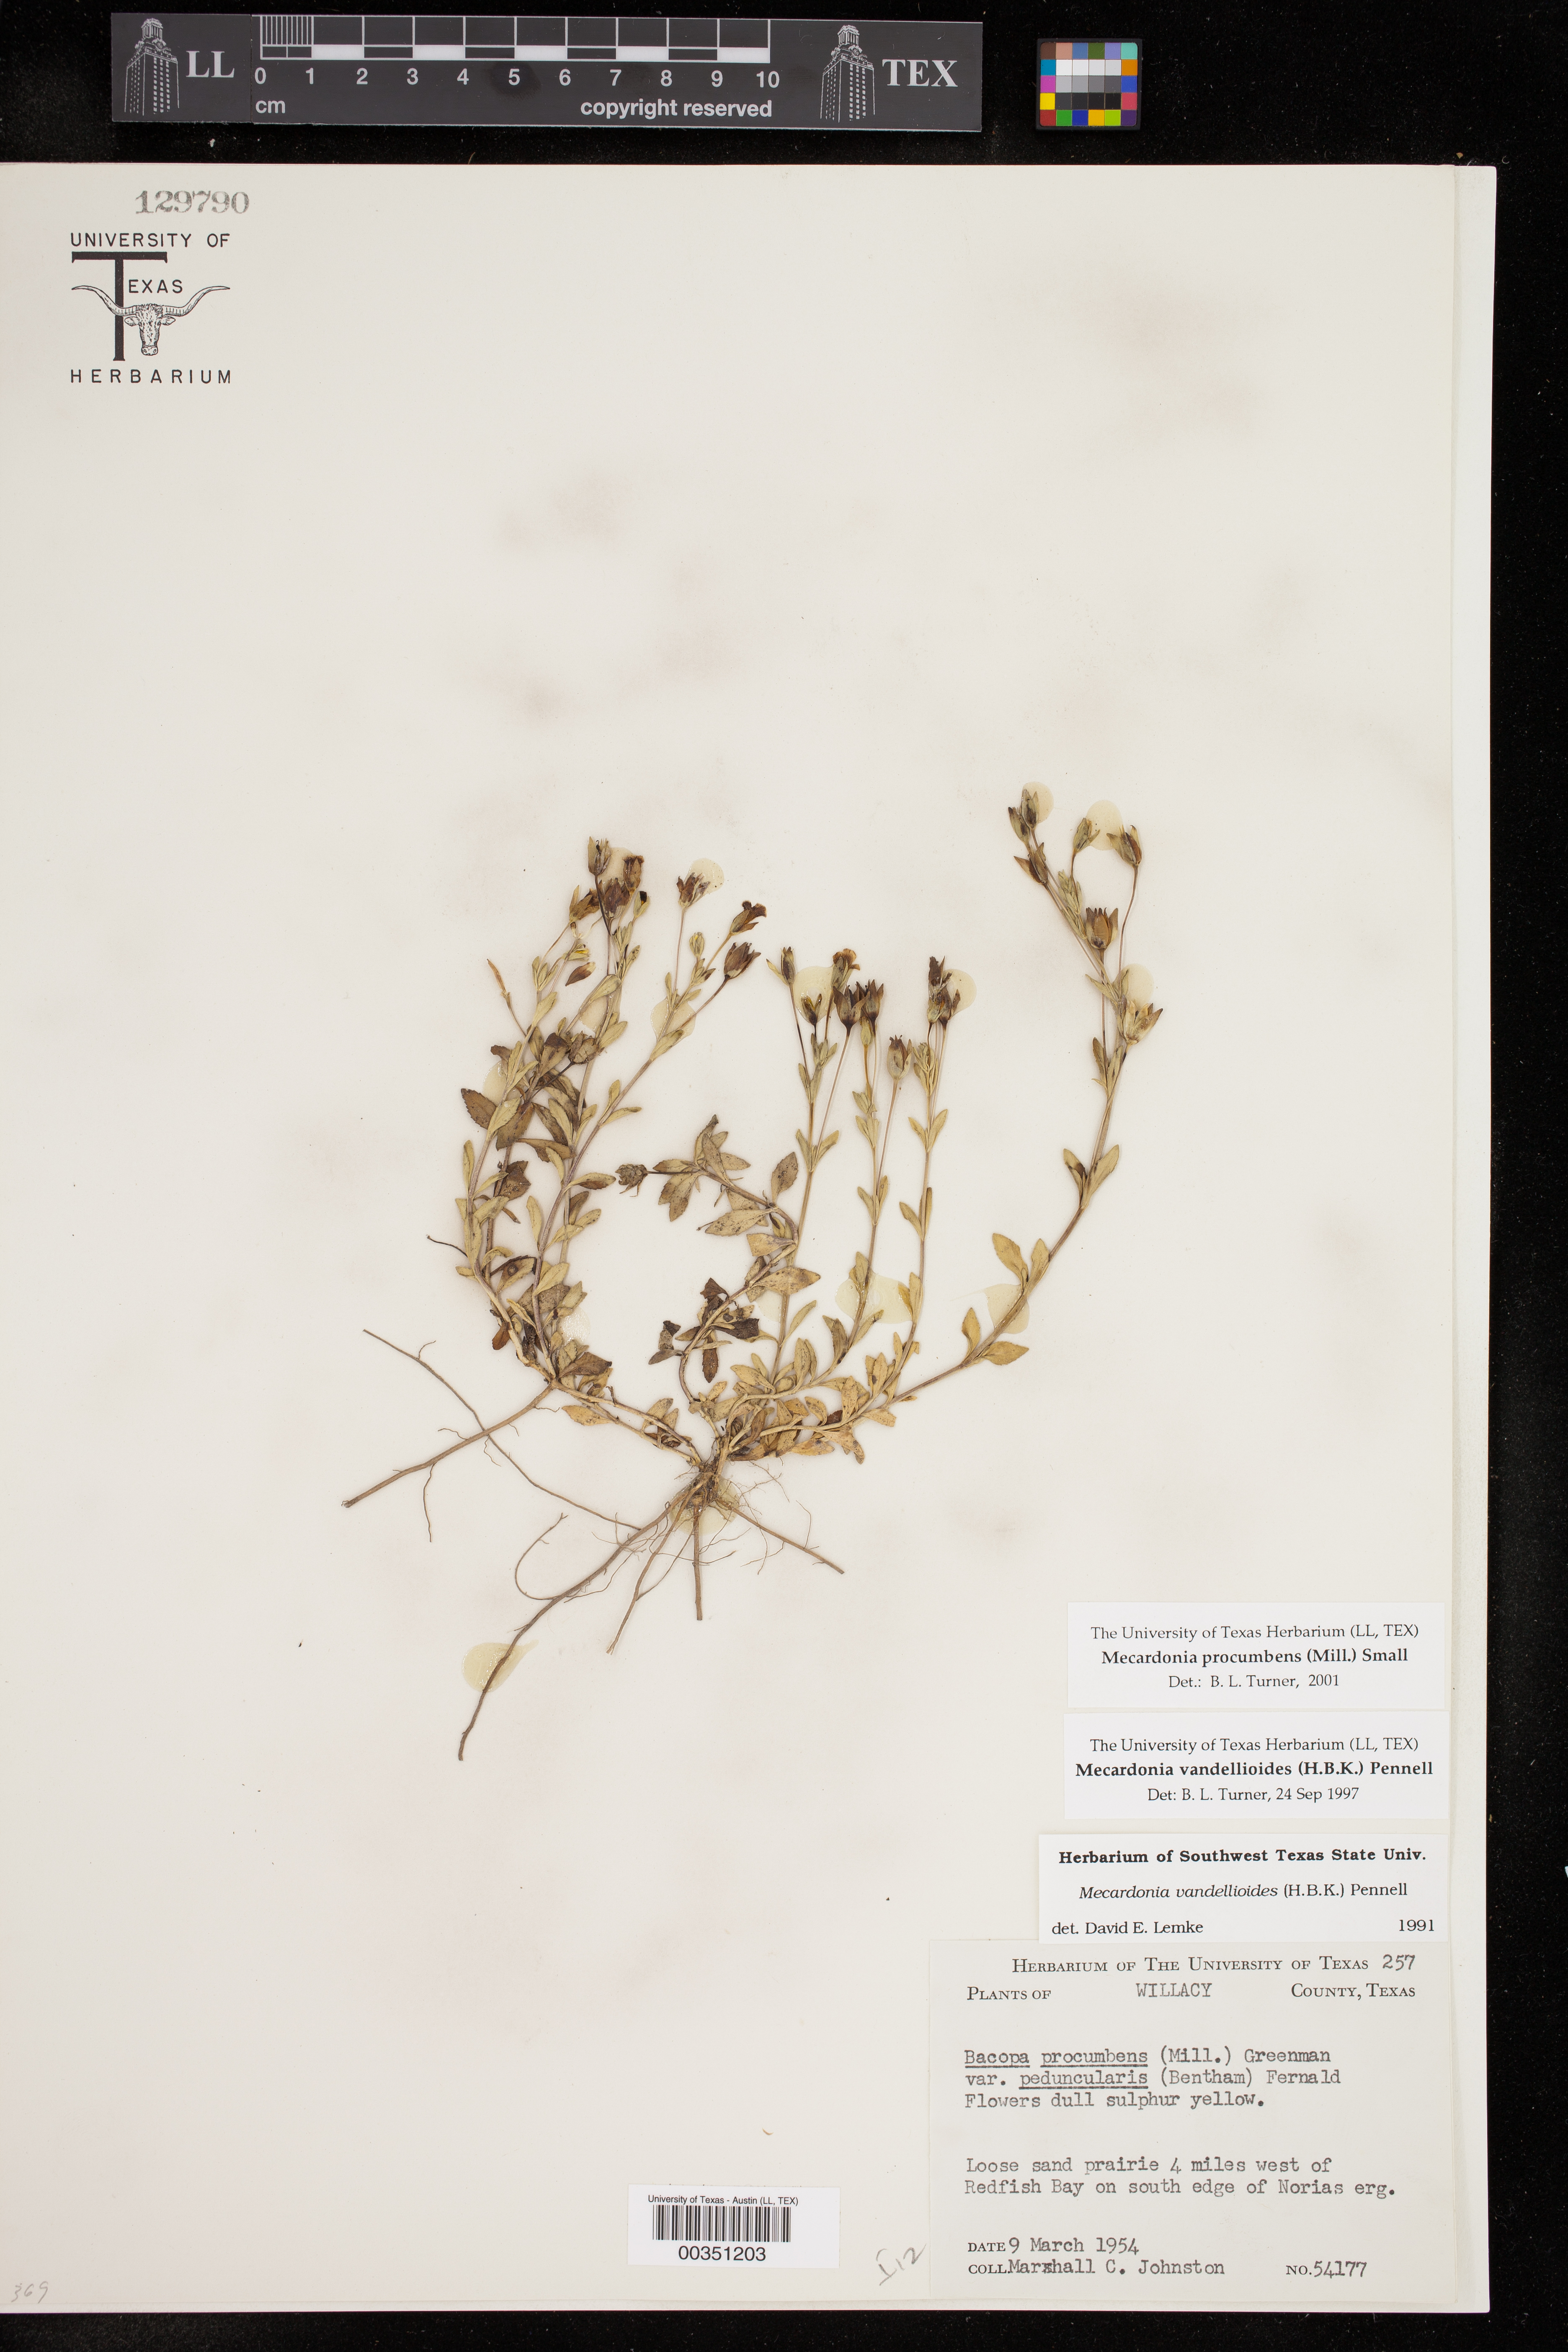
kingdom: Plantae
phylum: Tracheophyta
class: Magnoliopsida
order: Lamiales
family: Plantaginaceae
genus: Mecardonia
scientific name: Mecardonia procumbens
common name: Baby jump-up
